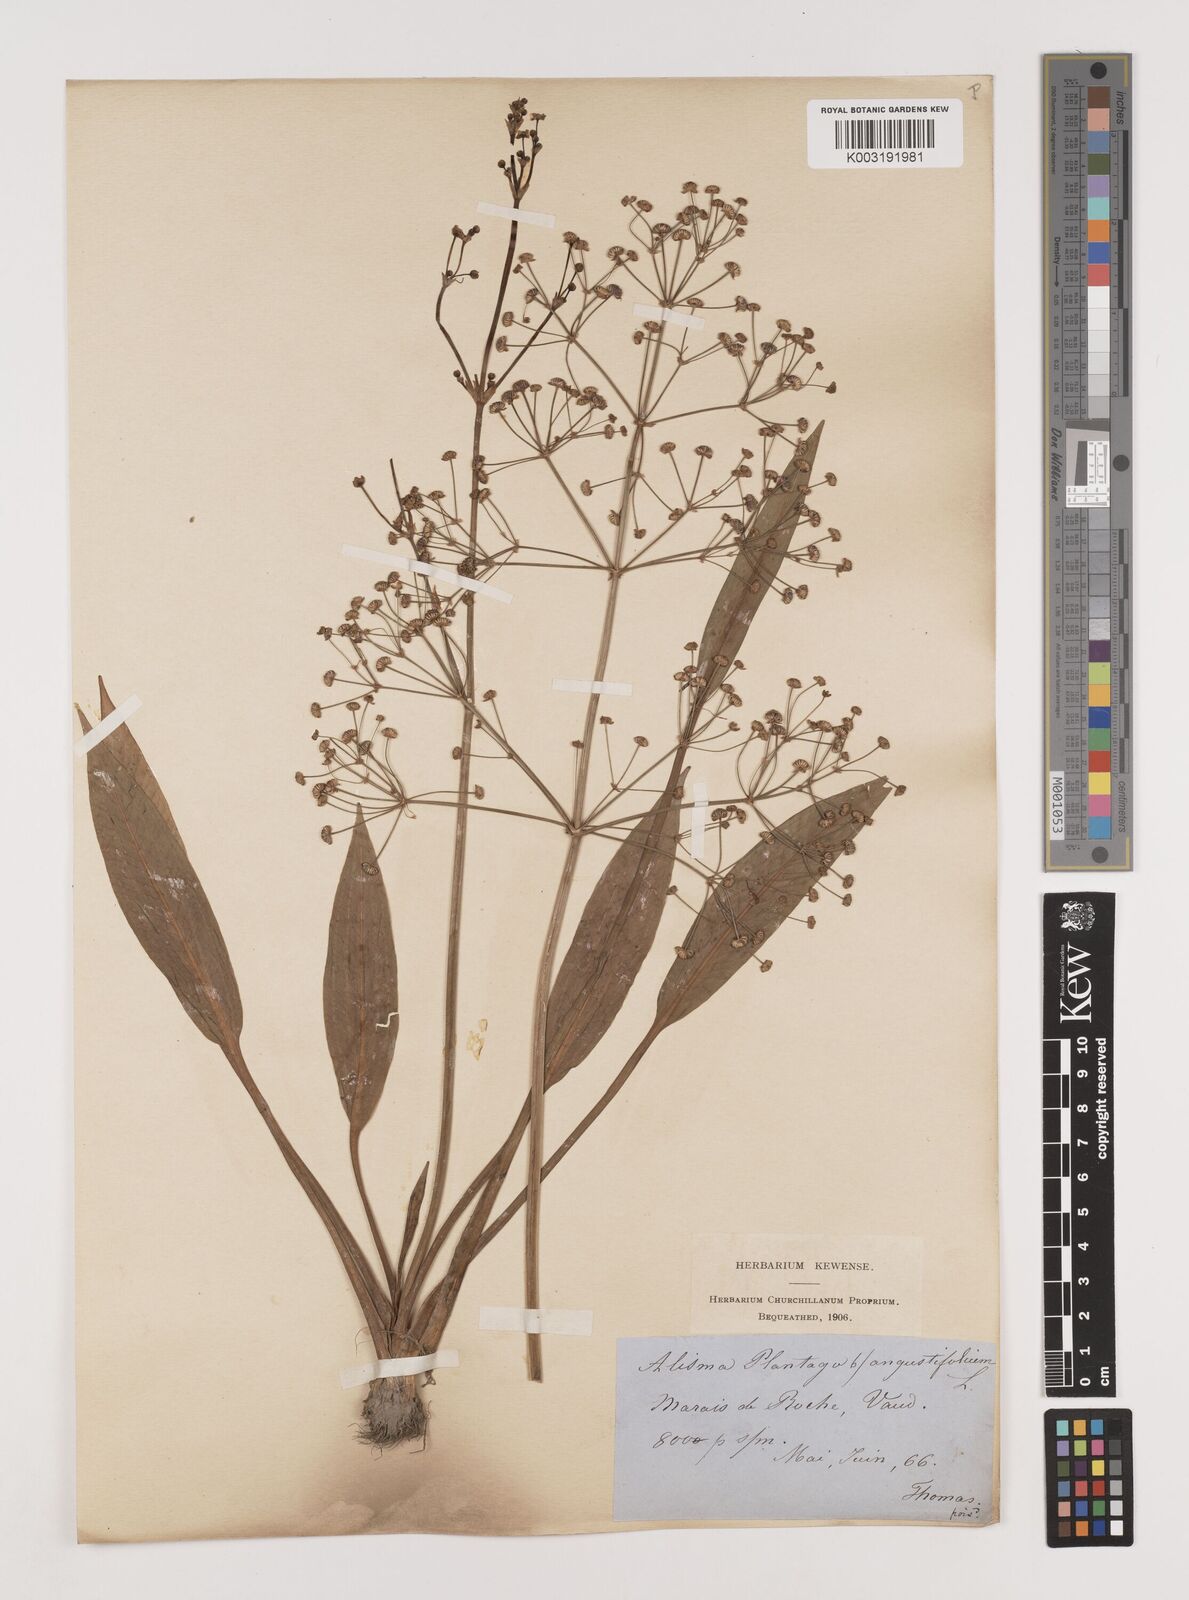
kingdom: Plantae
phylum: Tracheophyta
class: Liliopsida
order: Alismatales
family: Alismataceae
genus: Alisma
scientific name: Alisma lanceolatum
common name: Narrow-leaved water-plantain
